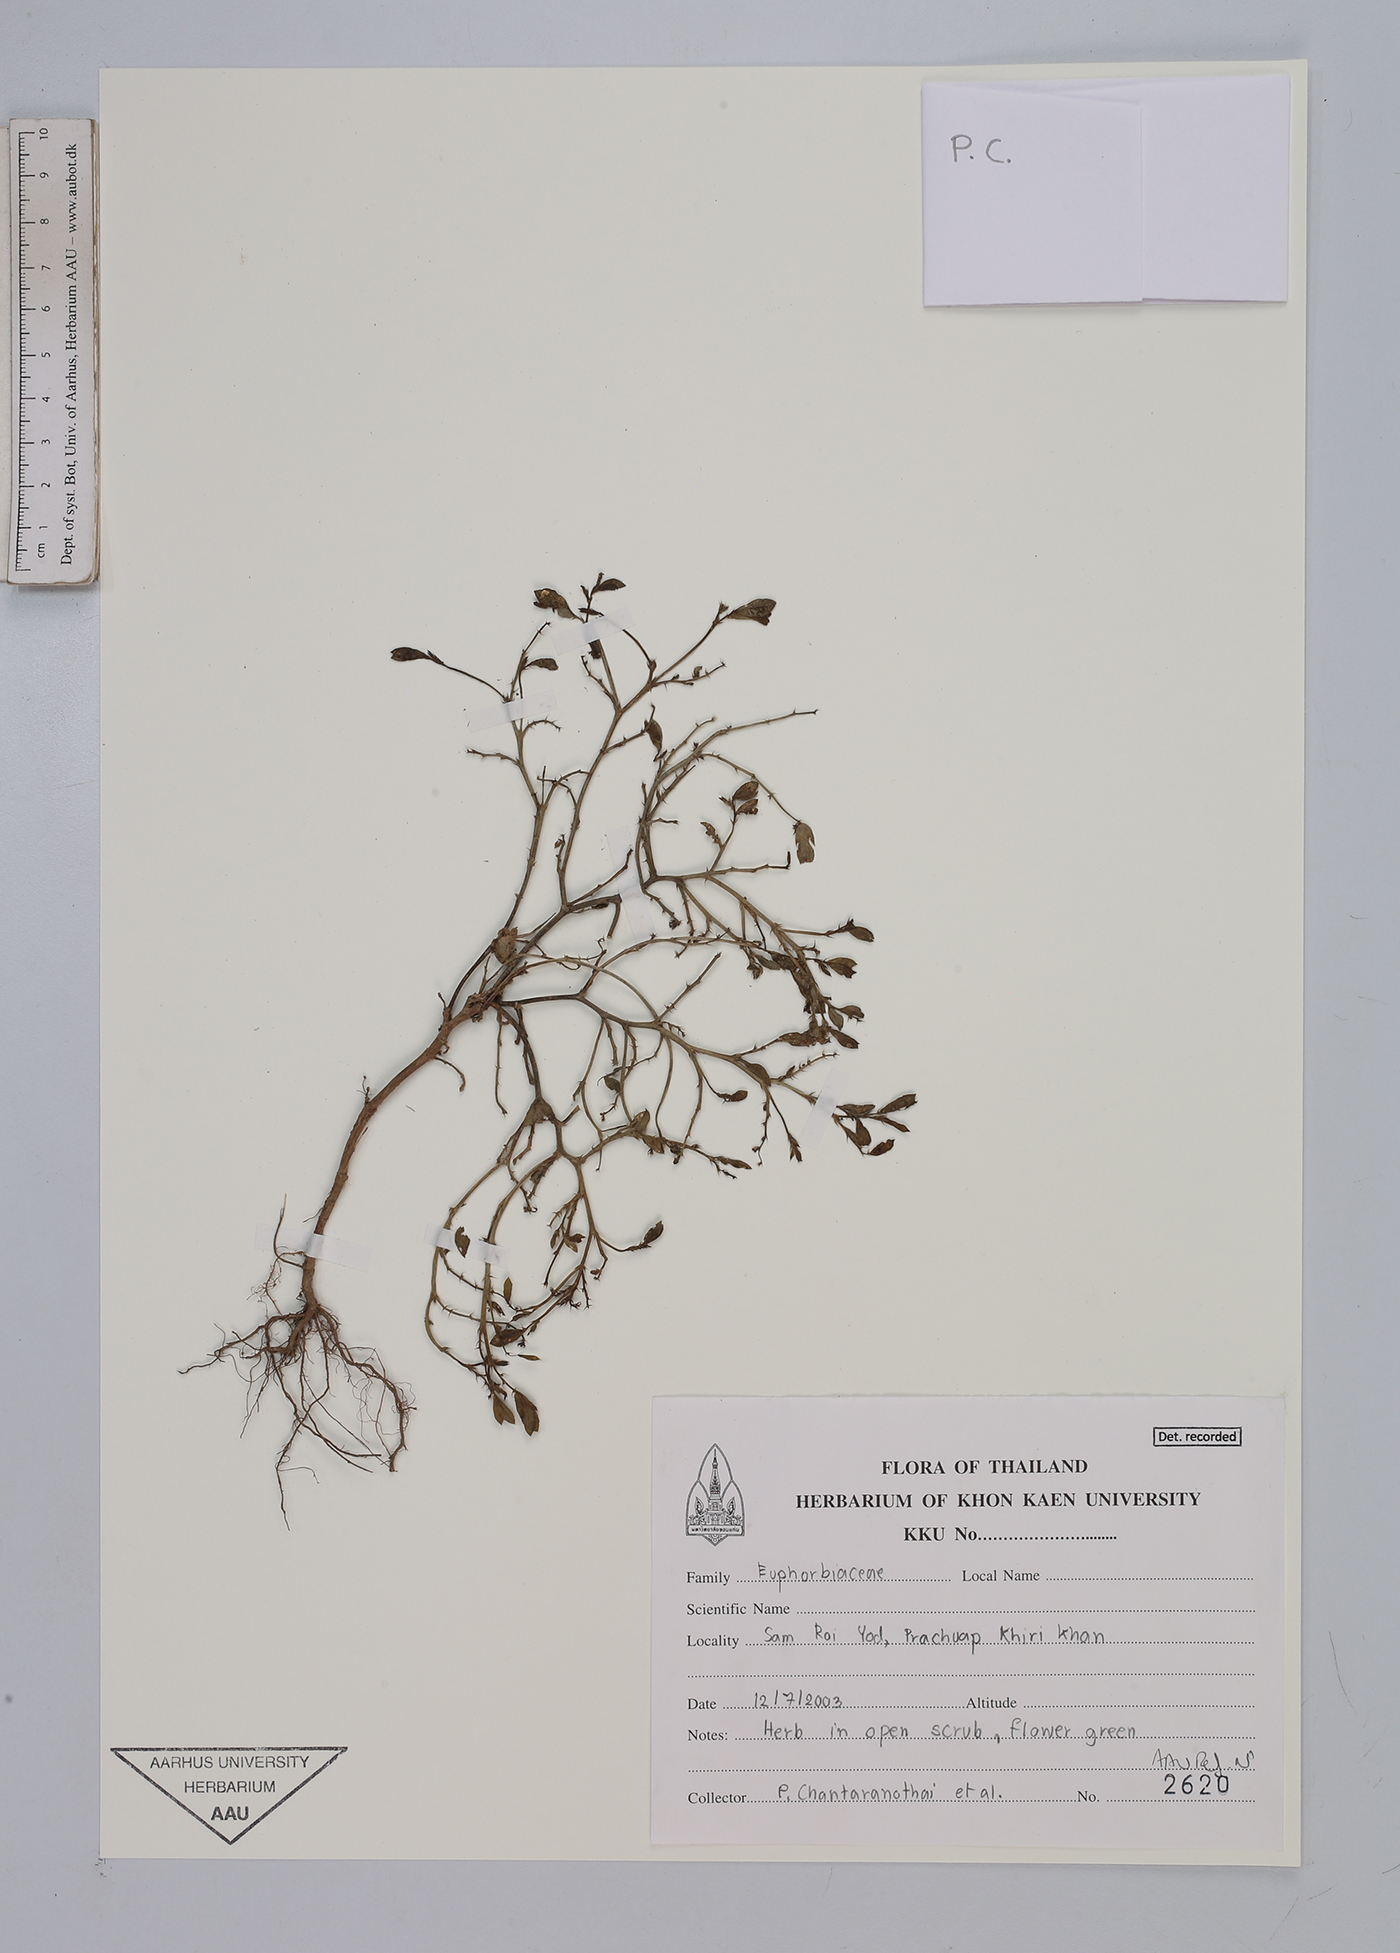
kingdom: Plantae
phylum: Tracheophyta
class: Magnoliopsida
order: Malpighiales
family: Euphorbiaceae
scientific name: Euphorbiaceae
